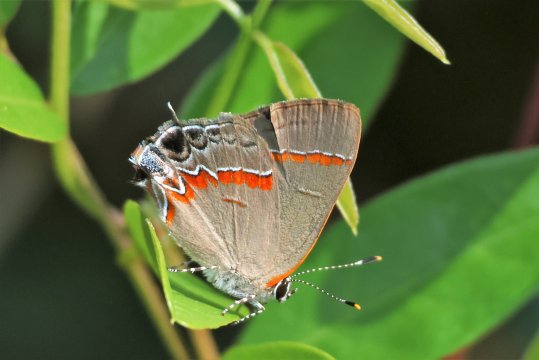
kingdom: Animalia
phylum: Arthropoda
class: Insecta
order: Lepidoptera
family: Lycaenidae
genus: Calycopis
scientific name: Calycopis cecrops
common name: Red-banded Hairstreak
